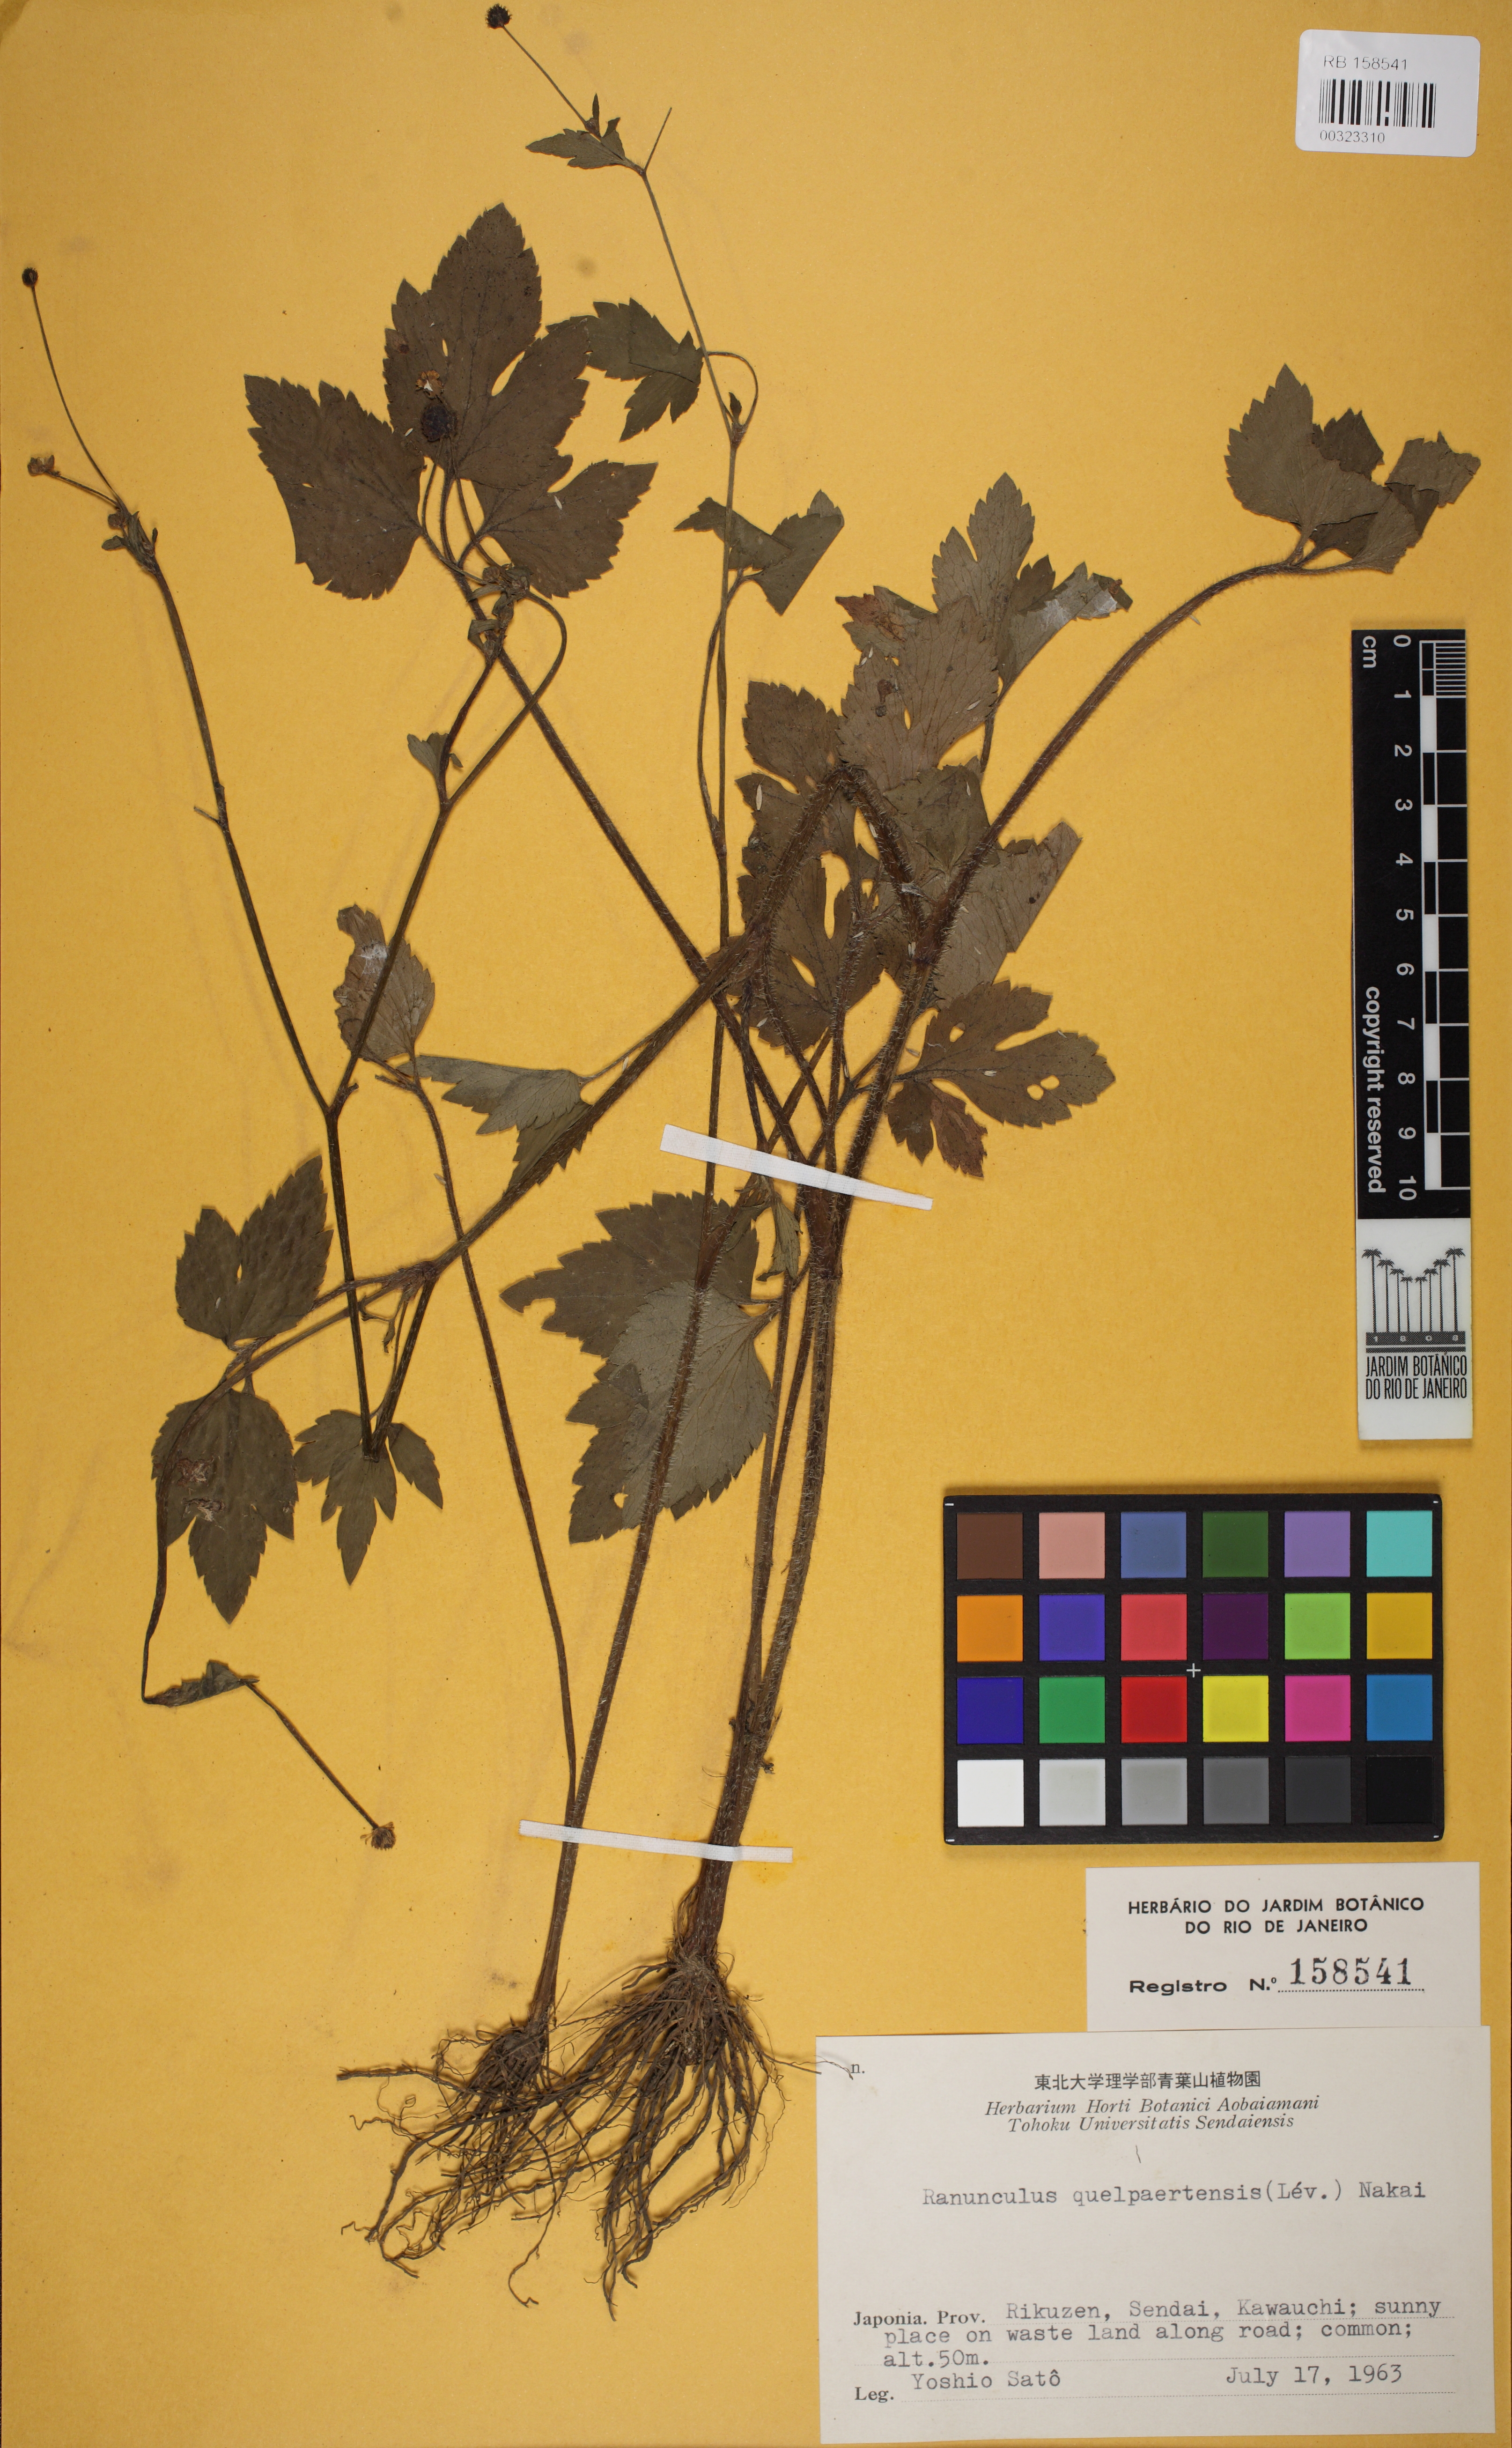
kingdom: Plantae
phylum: Tracheophyta
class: Magnoliopsida
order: Ranunculales
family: Ranunculaceae
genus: Ranunculus
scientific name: Ranunculus silerifolius
